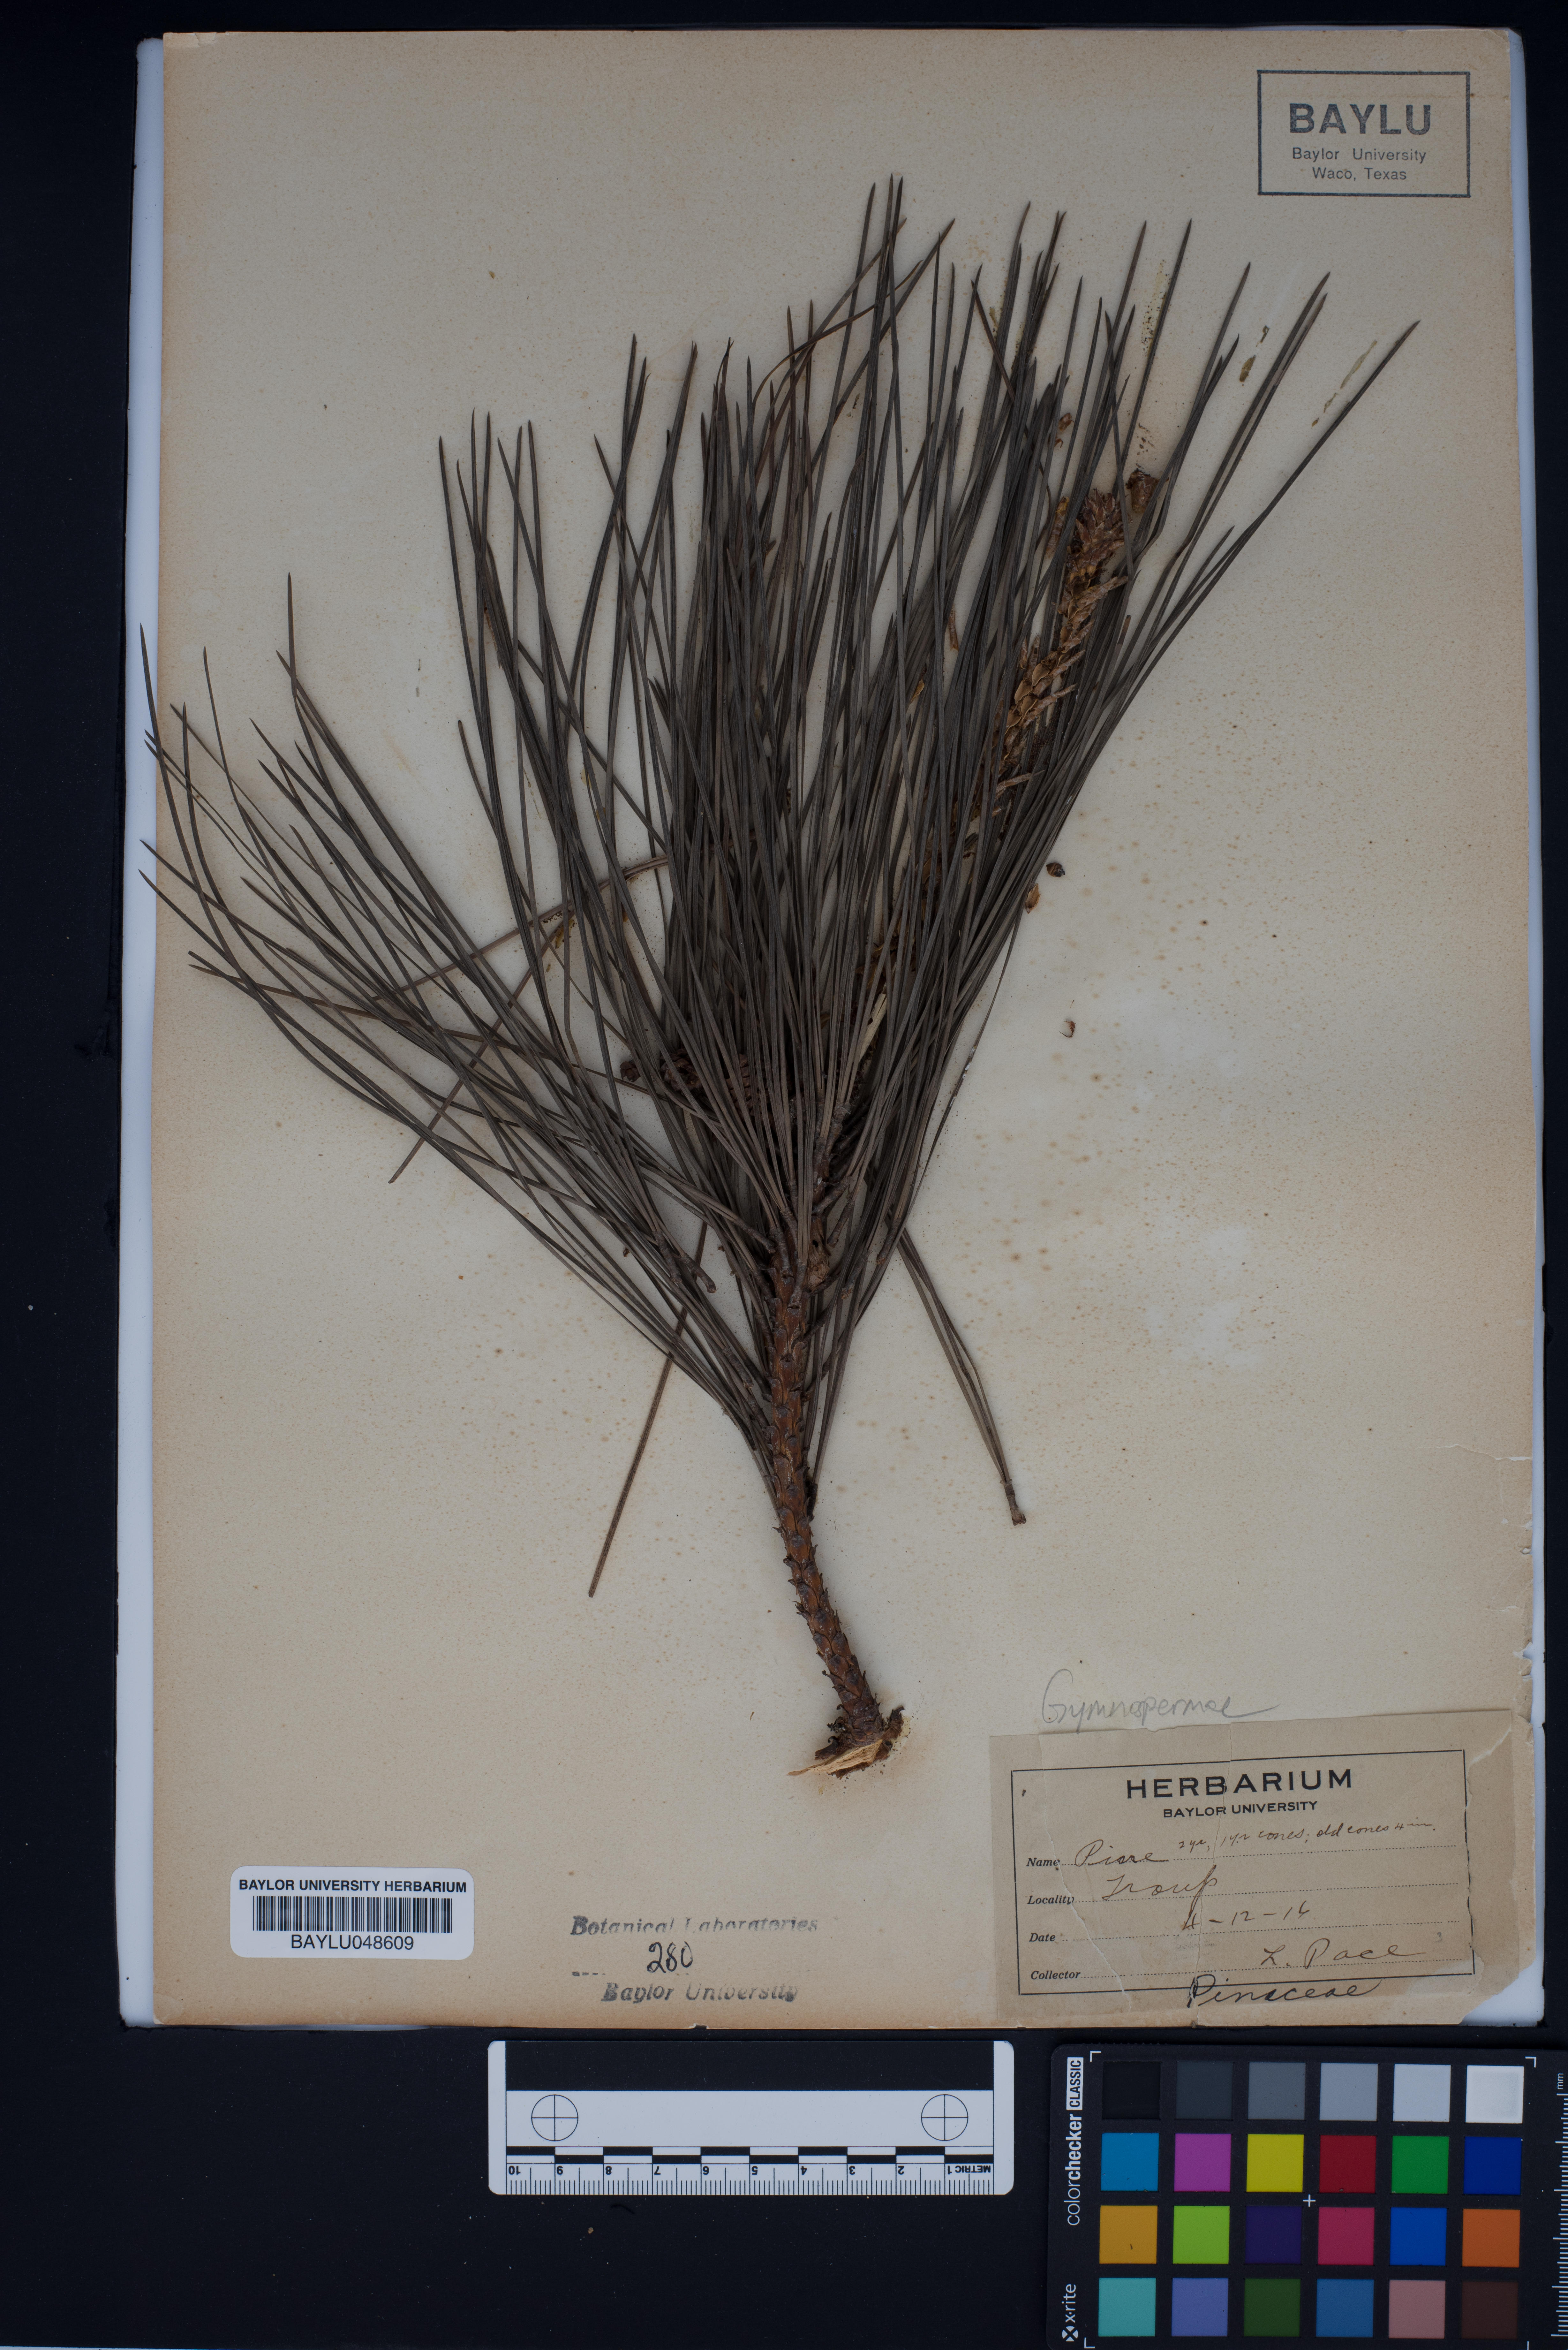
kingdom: Plantae
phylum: Tracheophyta
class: Pinopsida
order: Pinales
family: Pinaceae
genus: Pinus
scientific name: Pinus taeda
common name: Loblolly pine
